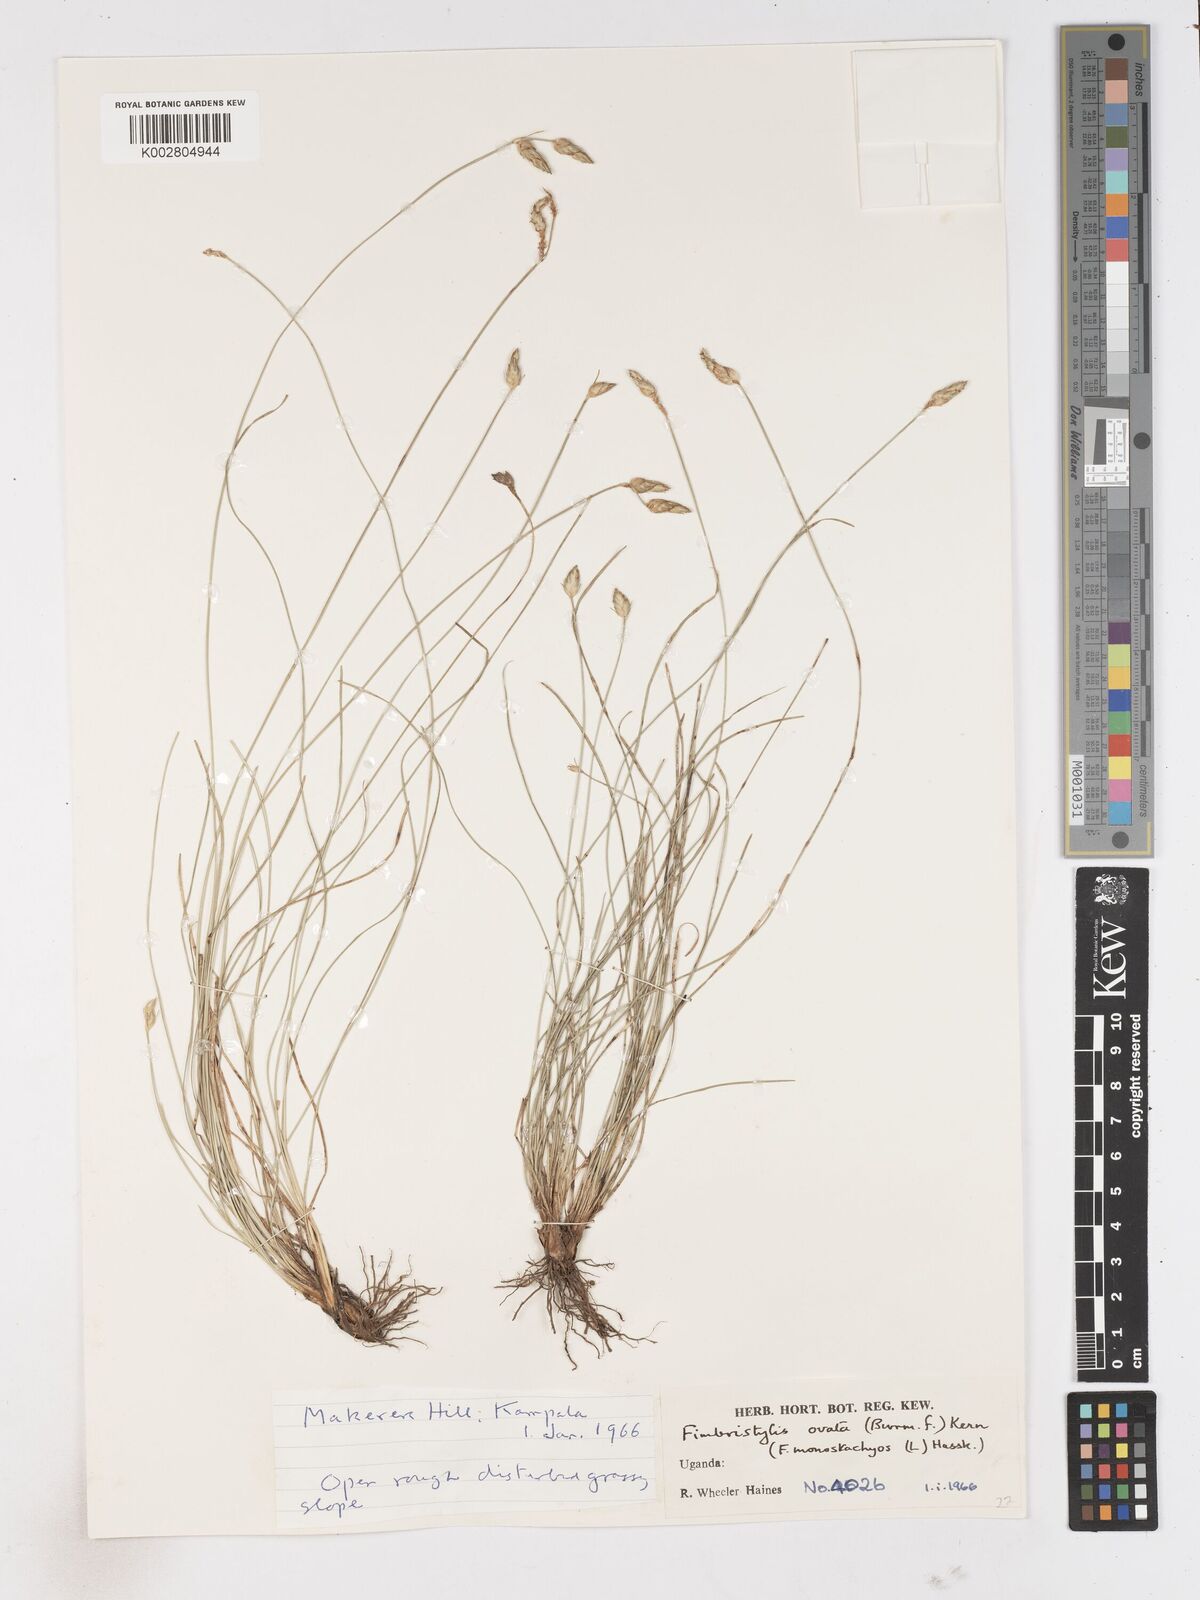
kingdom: Plantae
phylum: Tracheophyta
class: Liliopsida
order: Poales
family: Cyperaceae
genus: Abildgaardia
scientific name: Abildgaardia ovata
